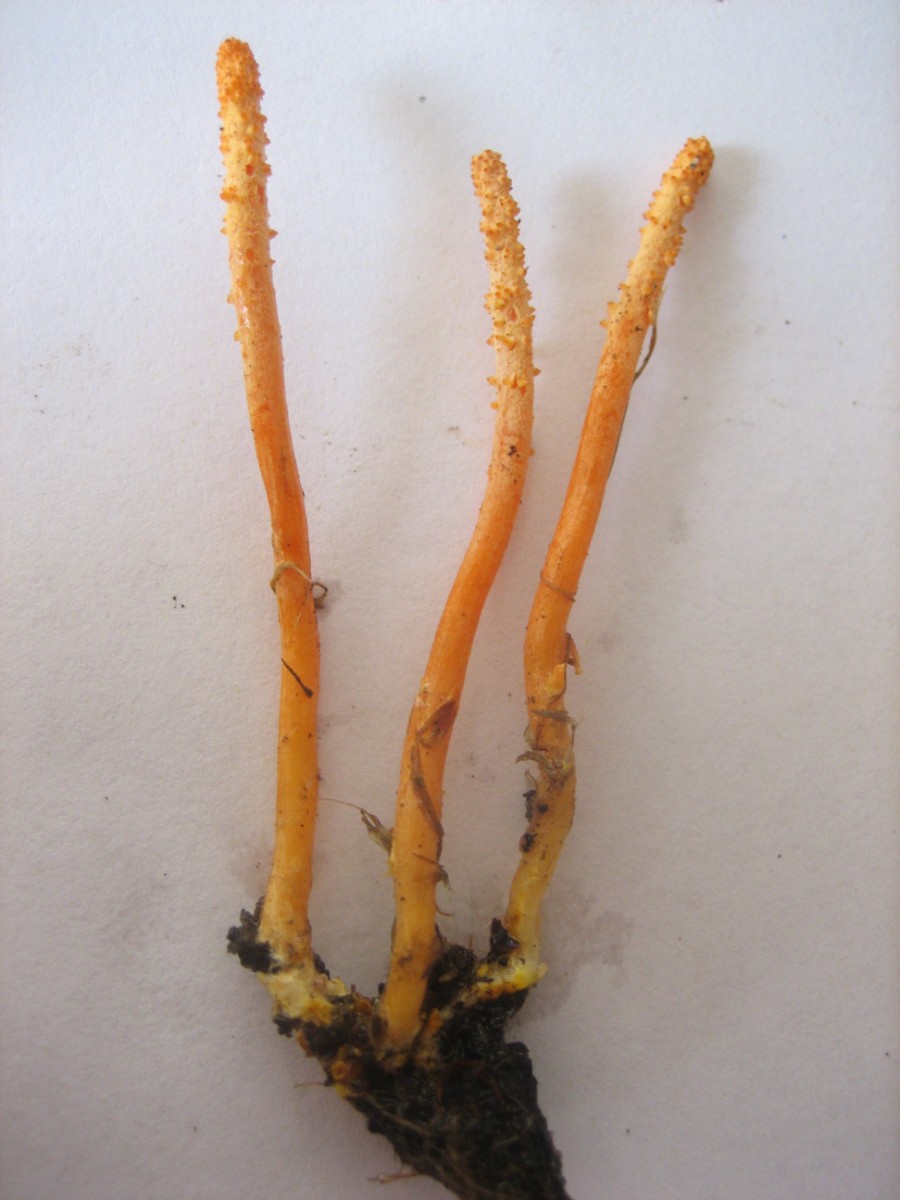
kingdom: Fungi
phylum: Ascomycota
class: Sordariomycetes
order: Hypocreales
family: Cordycipitaceae
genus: Cordyceps
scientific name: Cordyceps militaris
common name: puppe-snyltekølle
